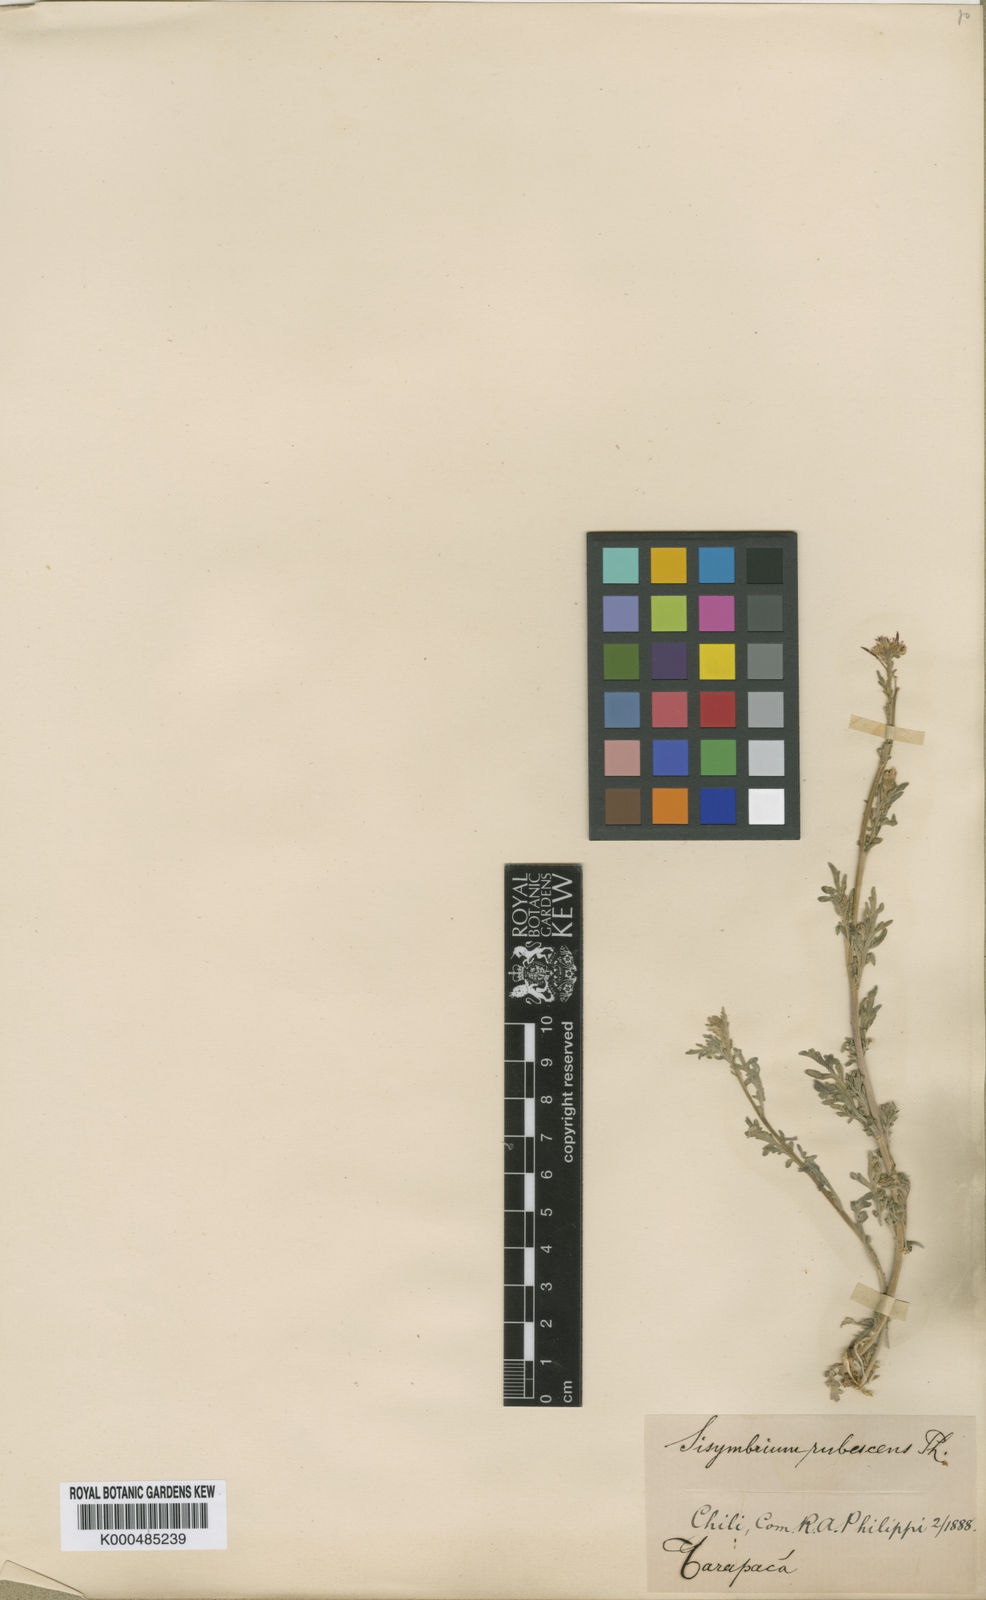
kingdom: Plantae
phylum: Tracheophyta
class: Magnoliopsida
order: Brassicales
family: Brassicaceae
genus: Descurainia
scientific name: Descurainia stricta
